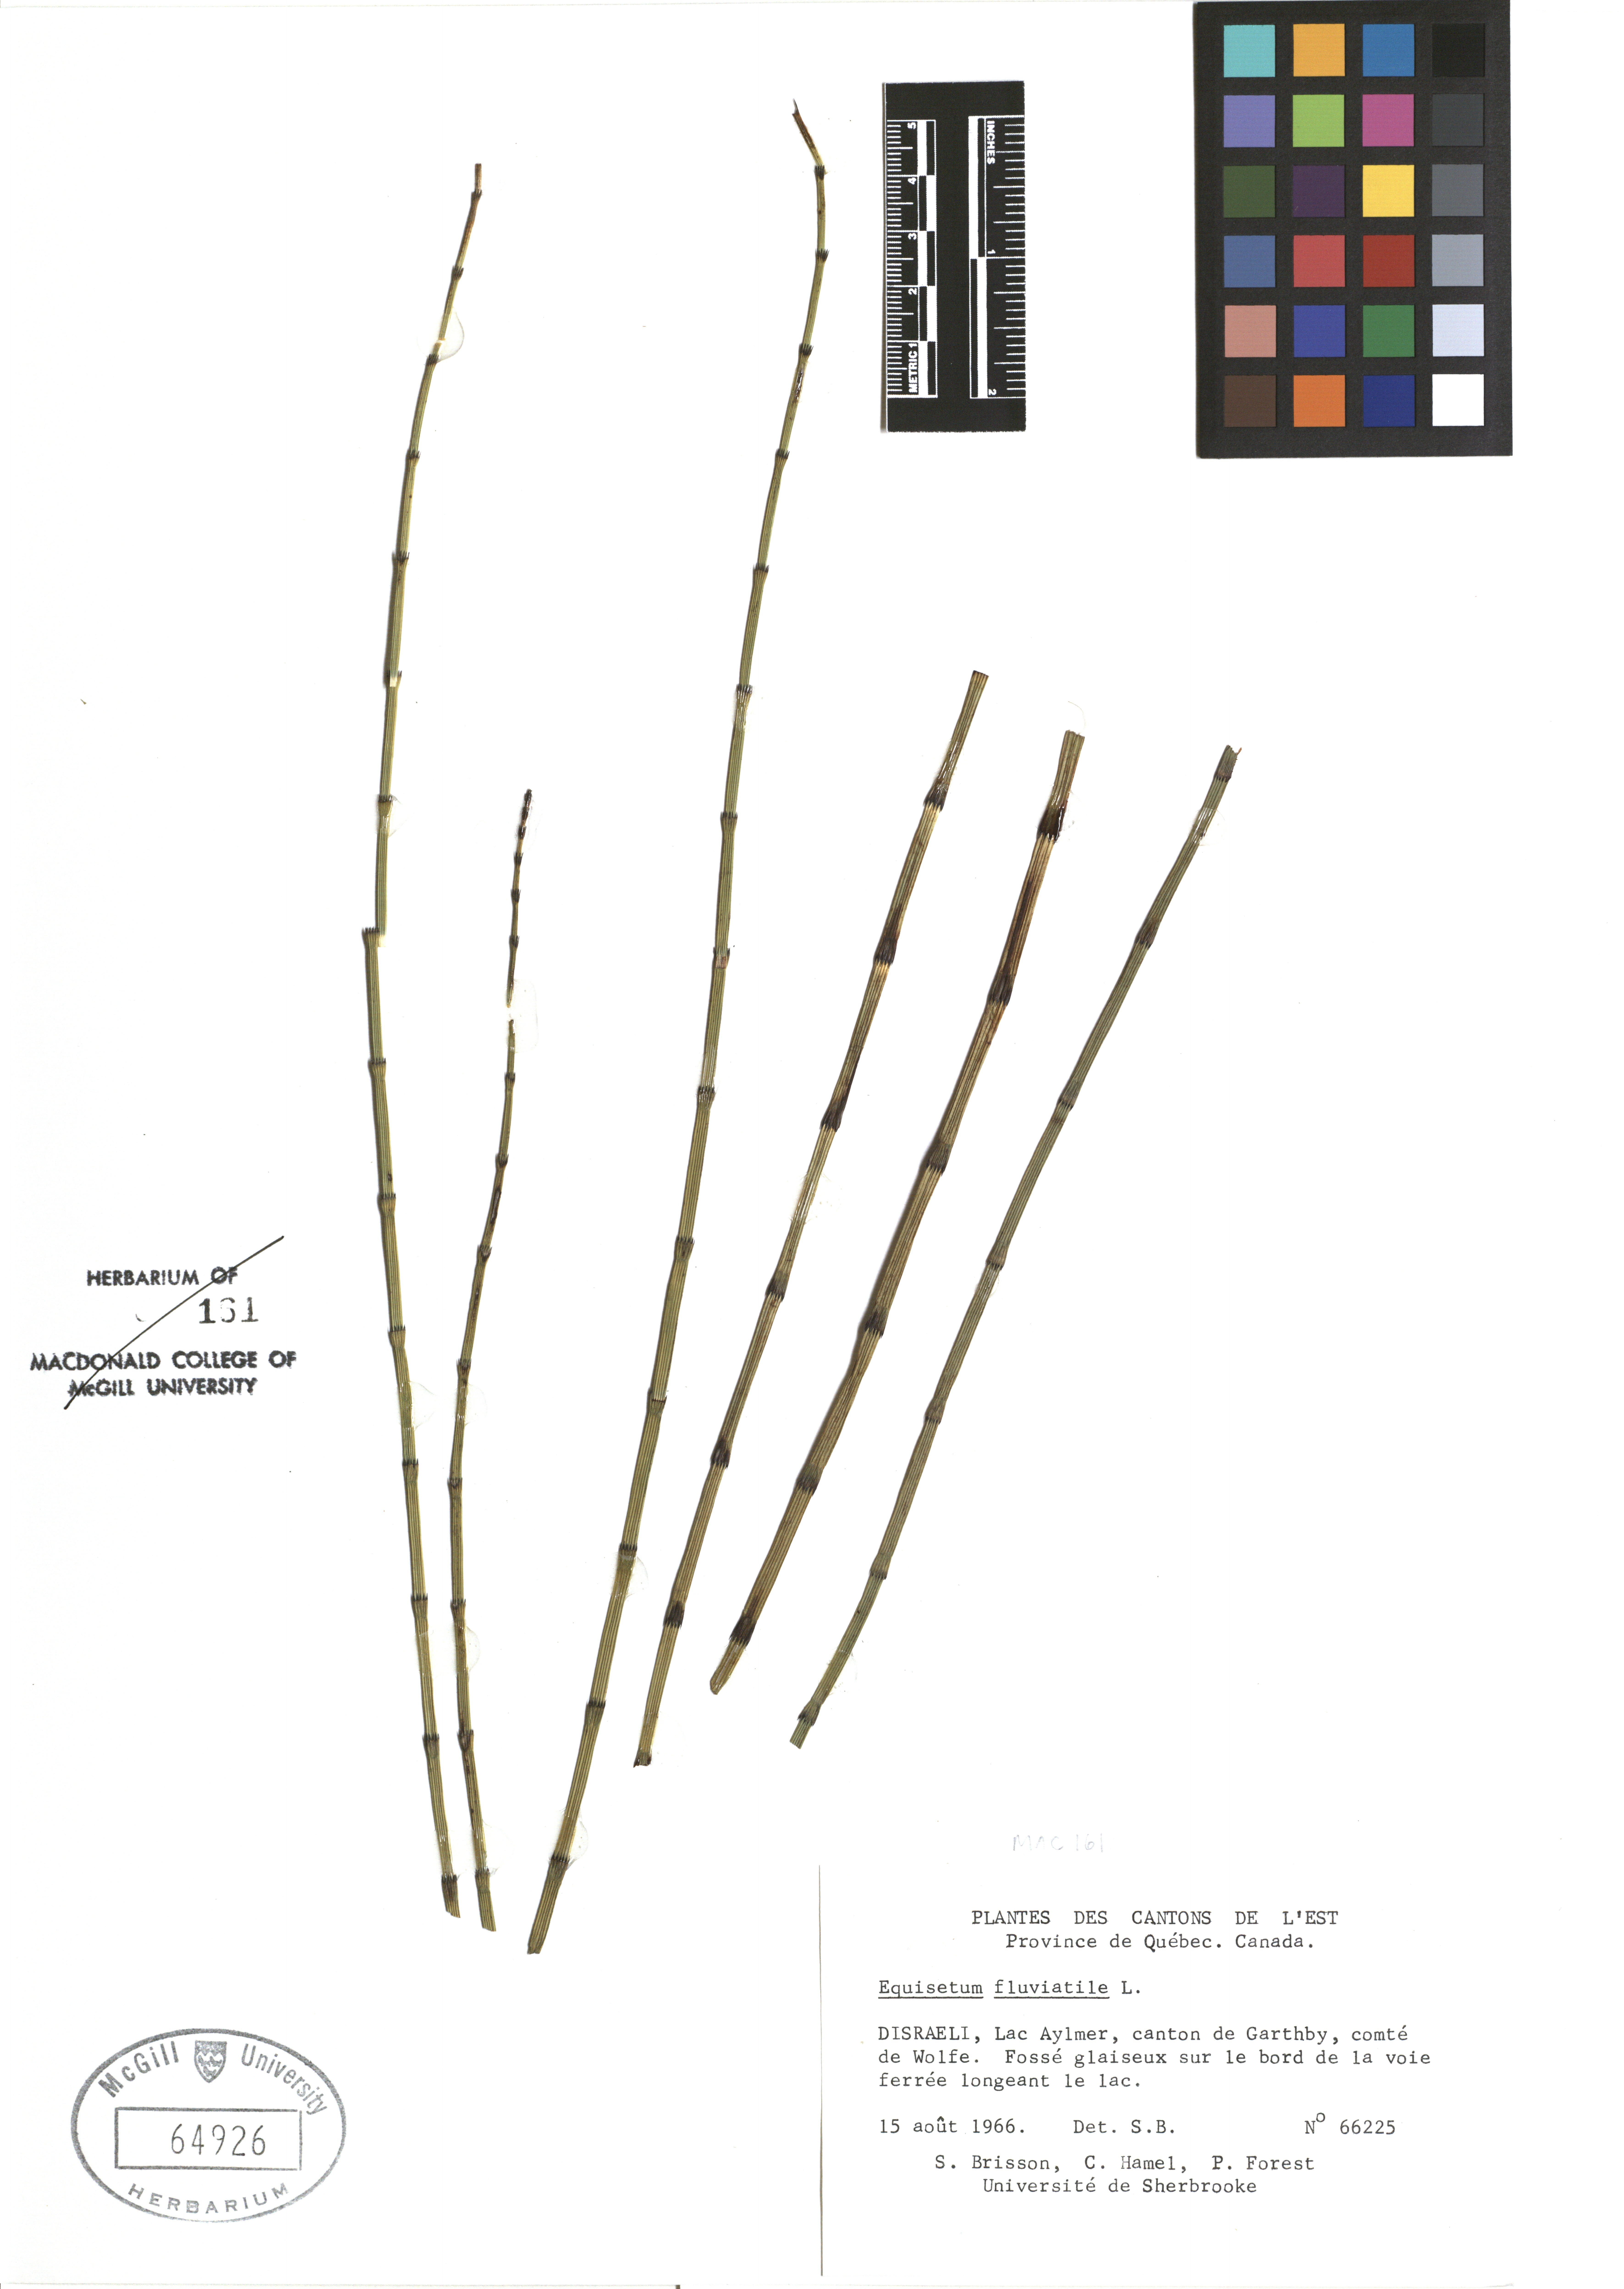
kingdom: Plantae
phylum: Tracheophyta
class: Polypodiopsida
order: Equisetales
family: Equisetaceae
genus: Equisetum
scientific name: Equisetum fluviatile
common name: Water horsetail
